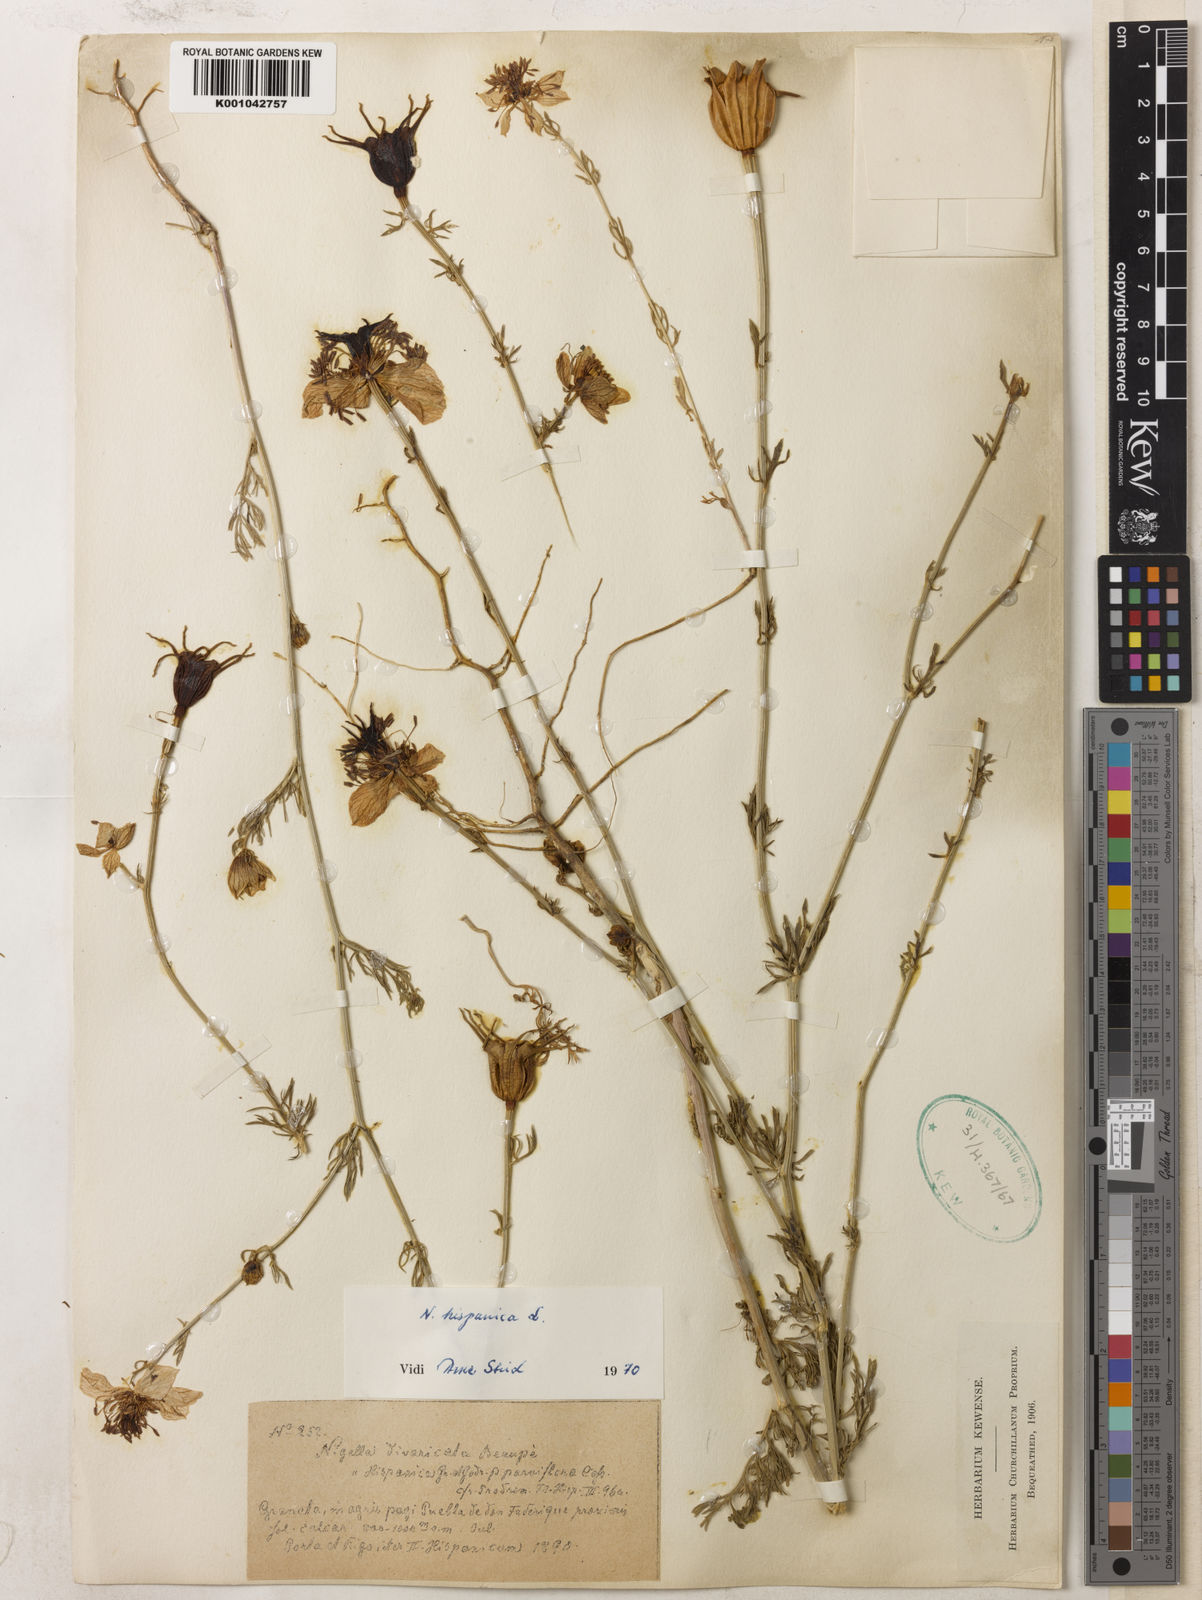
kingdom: Plantae
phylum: Tracheophyta
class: Magnoliopsida
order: Ranunculales
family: Ranunculaceae
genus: Nigella
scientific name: Nigella hispanica
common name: Fennel-flower
